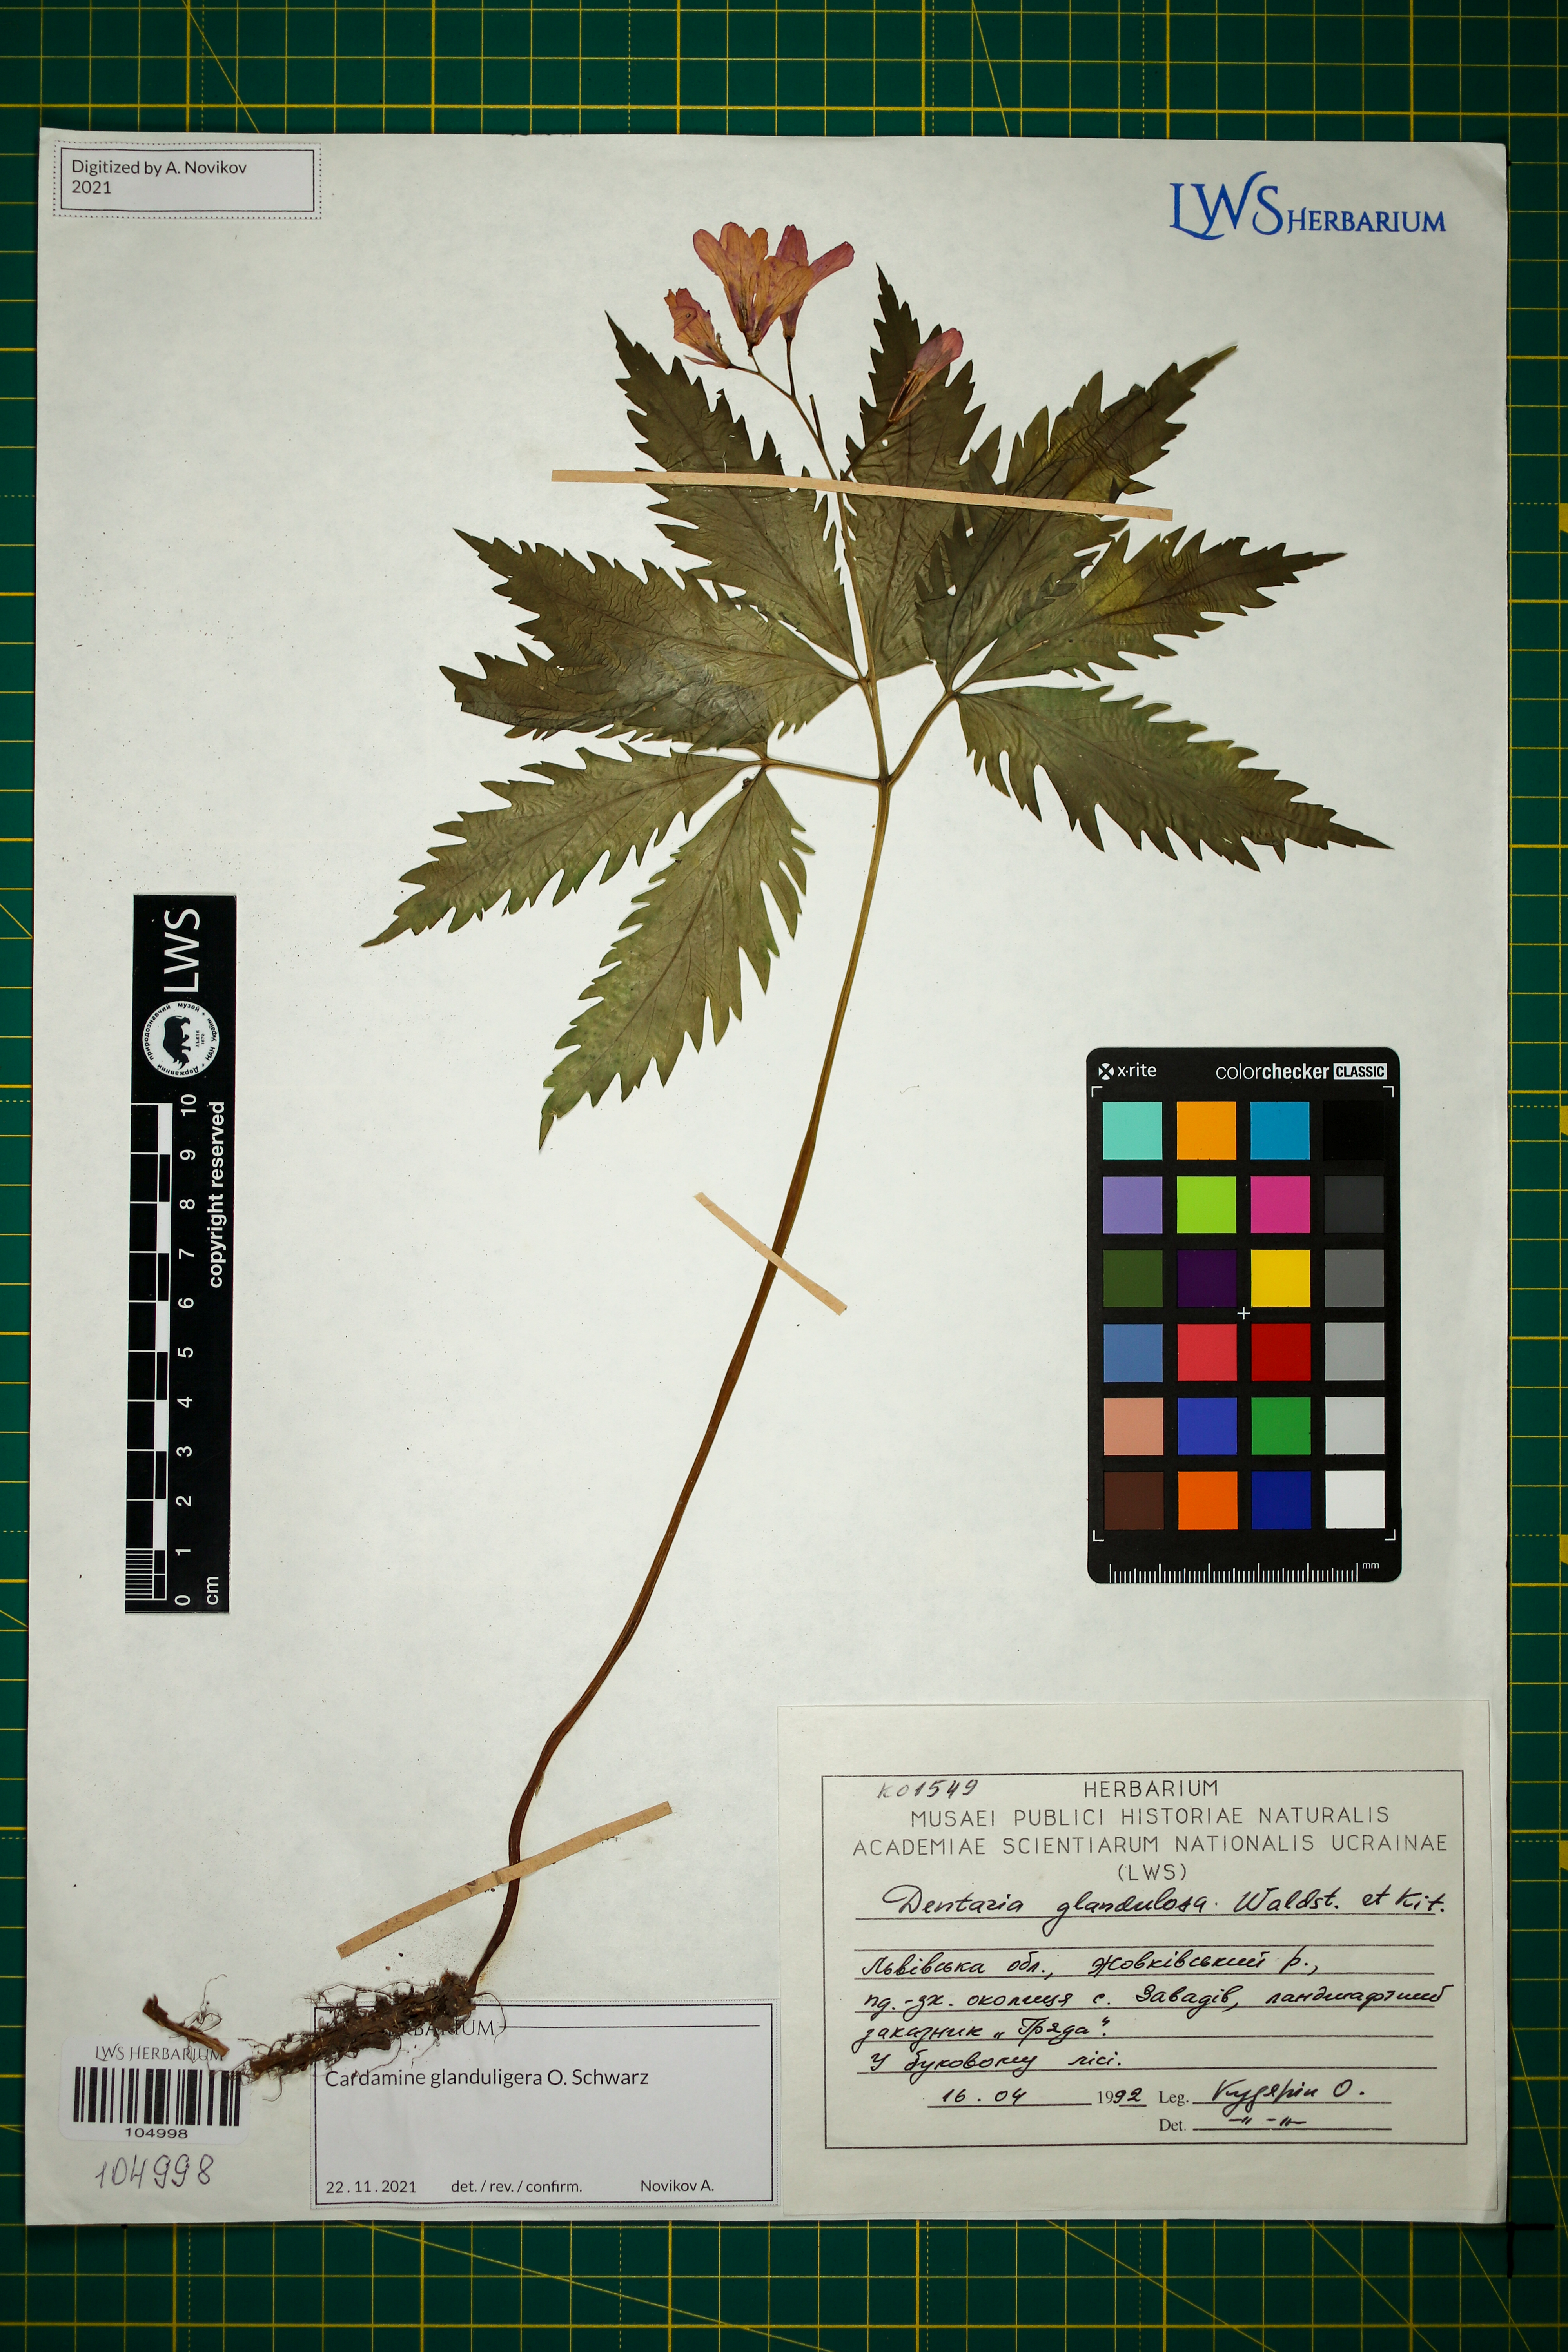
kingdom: Plantae
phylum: Tracheophyta
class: Magnoliopsida
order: Brassicales
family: Brassicaceae
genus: Cardamine
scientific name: Cardamine glanduligera
